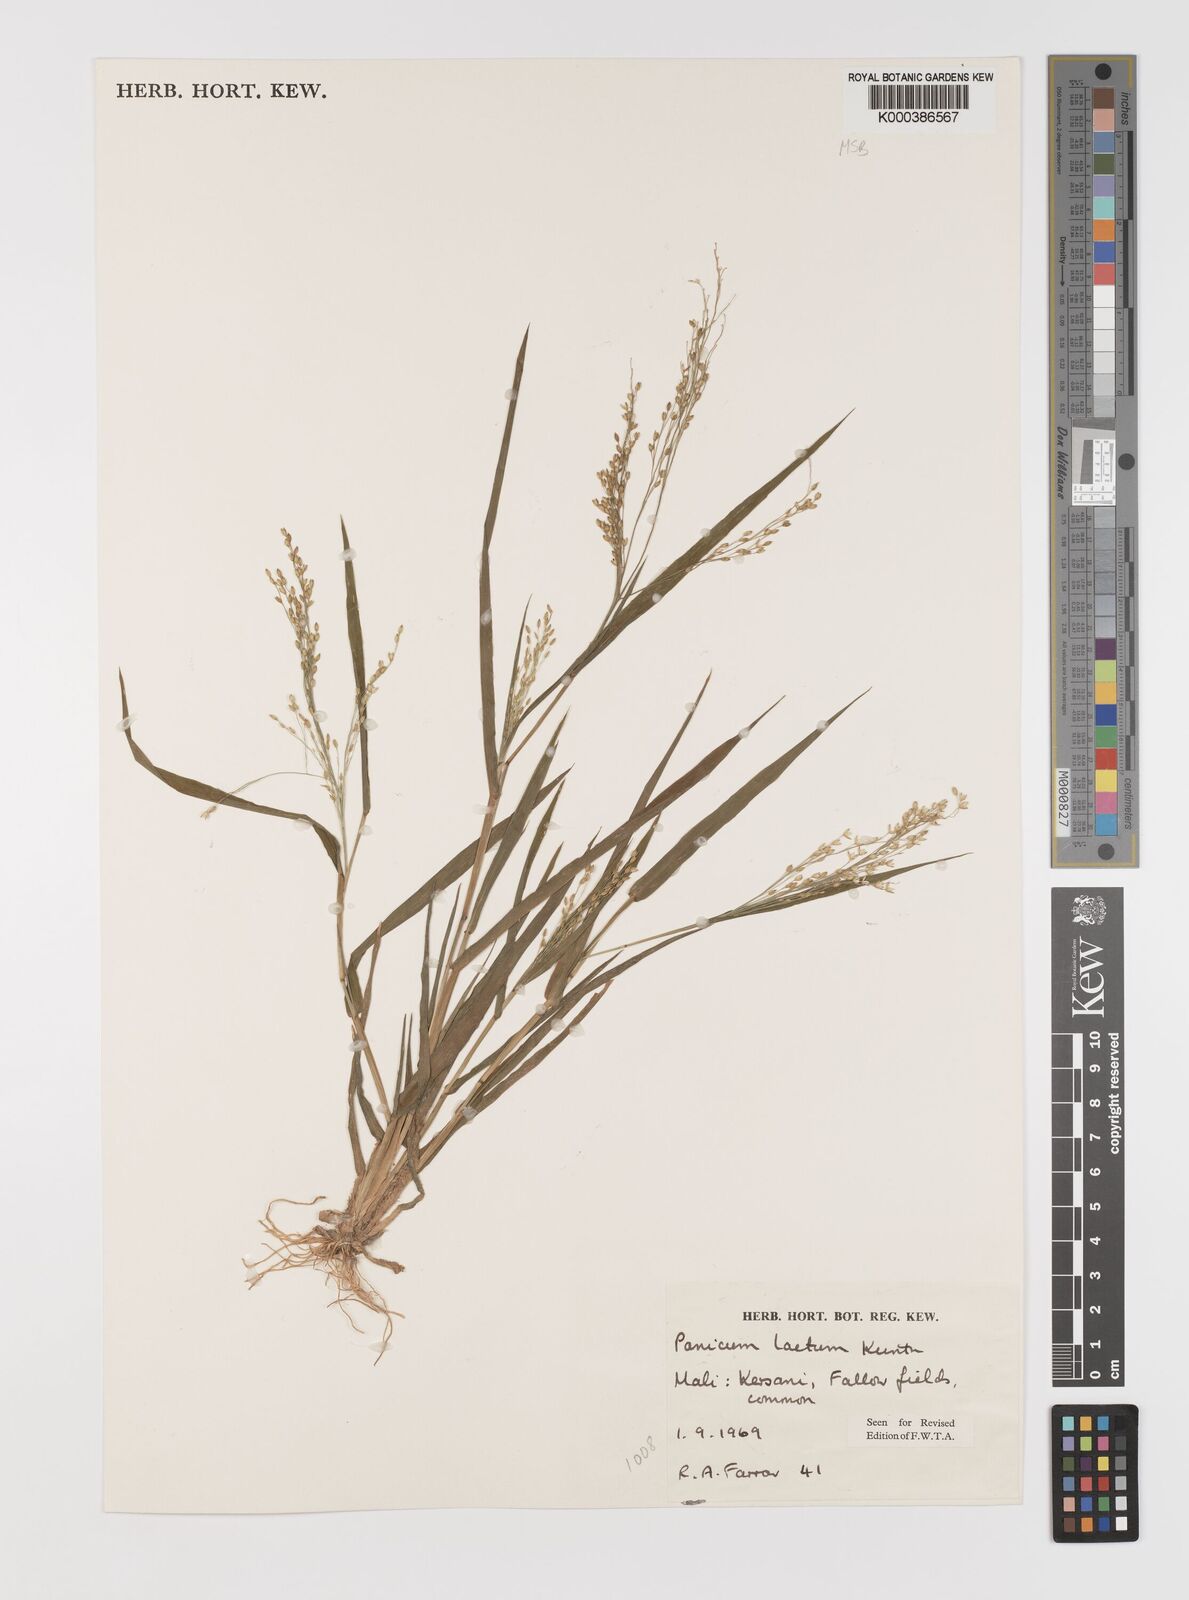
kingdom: Plantae
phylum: Tracheophyta
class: Liliopsida
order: Poales
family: Poaceae
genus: Panicum
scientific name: Panicum laetum
